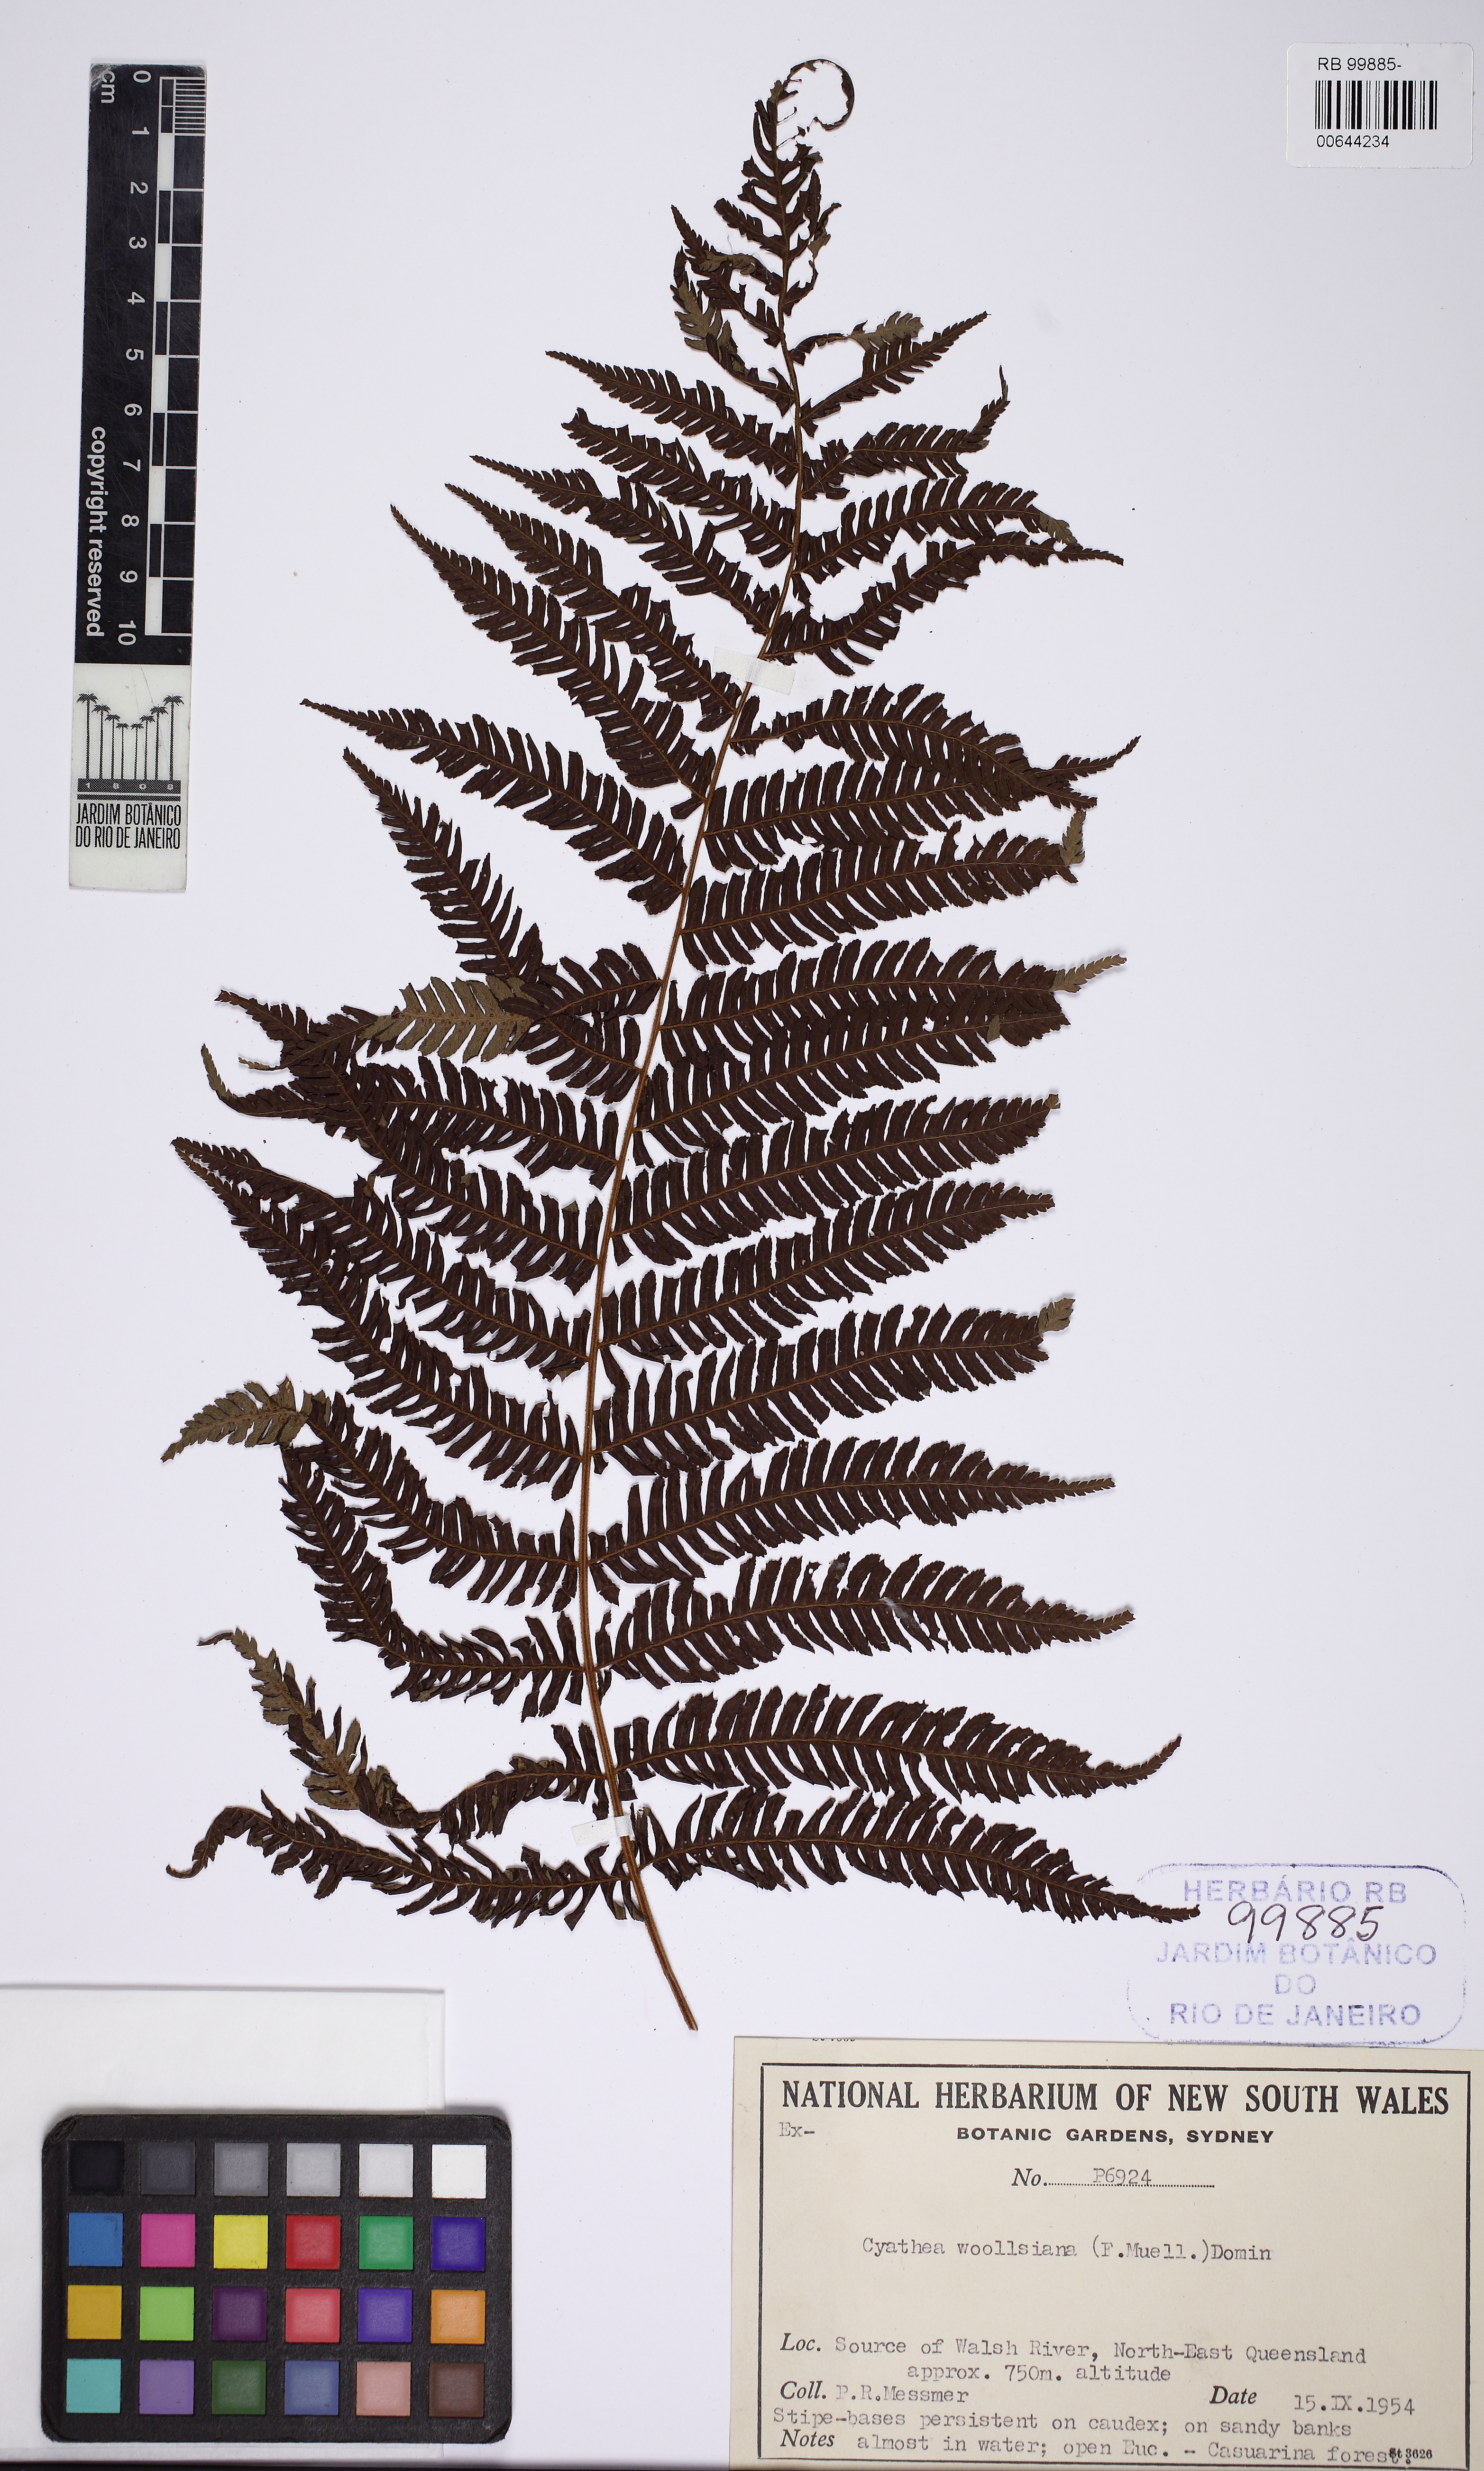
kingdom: Plantae
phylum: Tracheophyta
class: Polypodiopsida
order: Cyatheales
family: Cyatheaceae
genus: Alsophila
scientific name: Alsophila woollsiana
